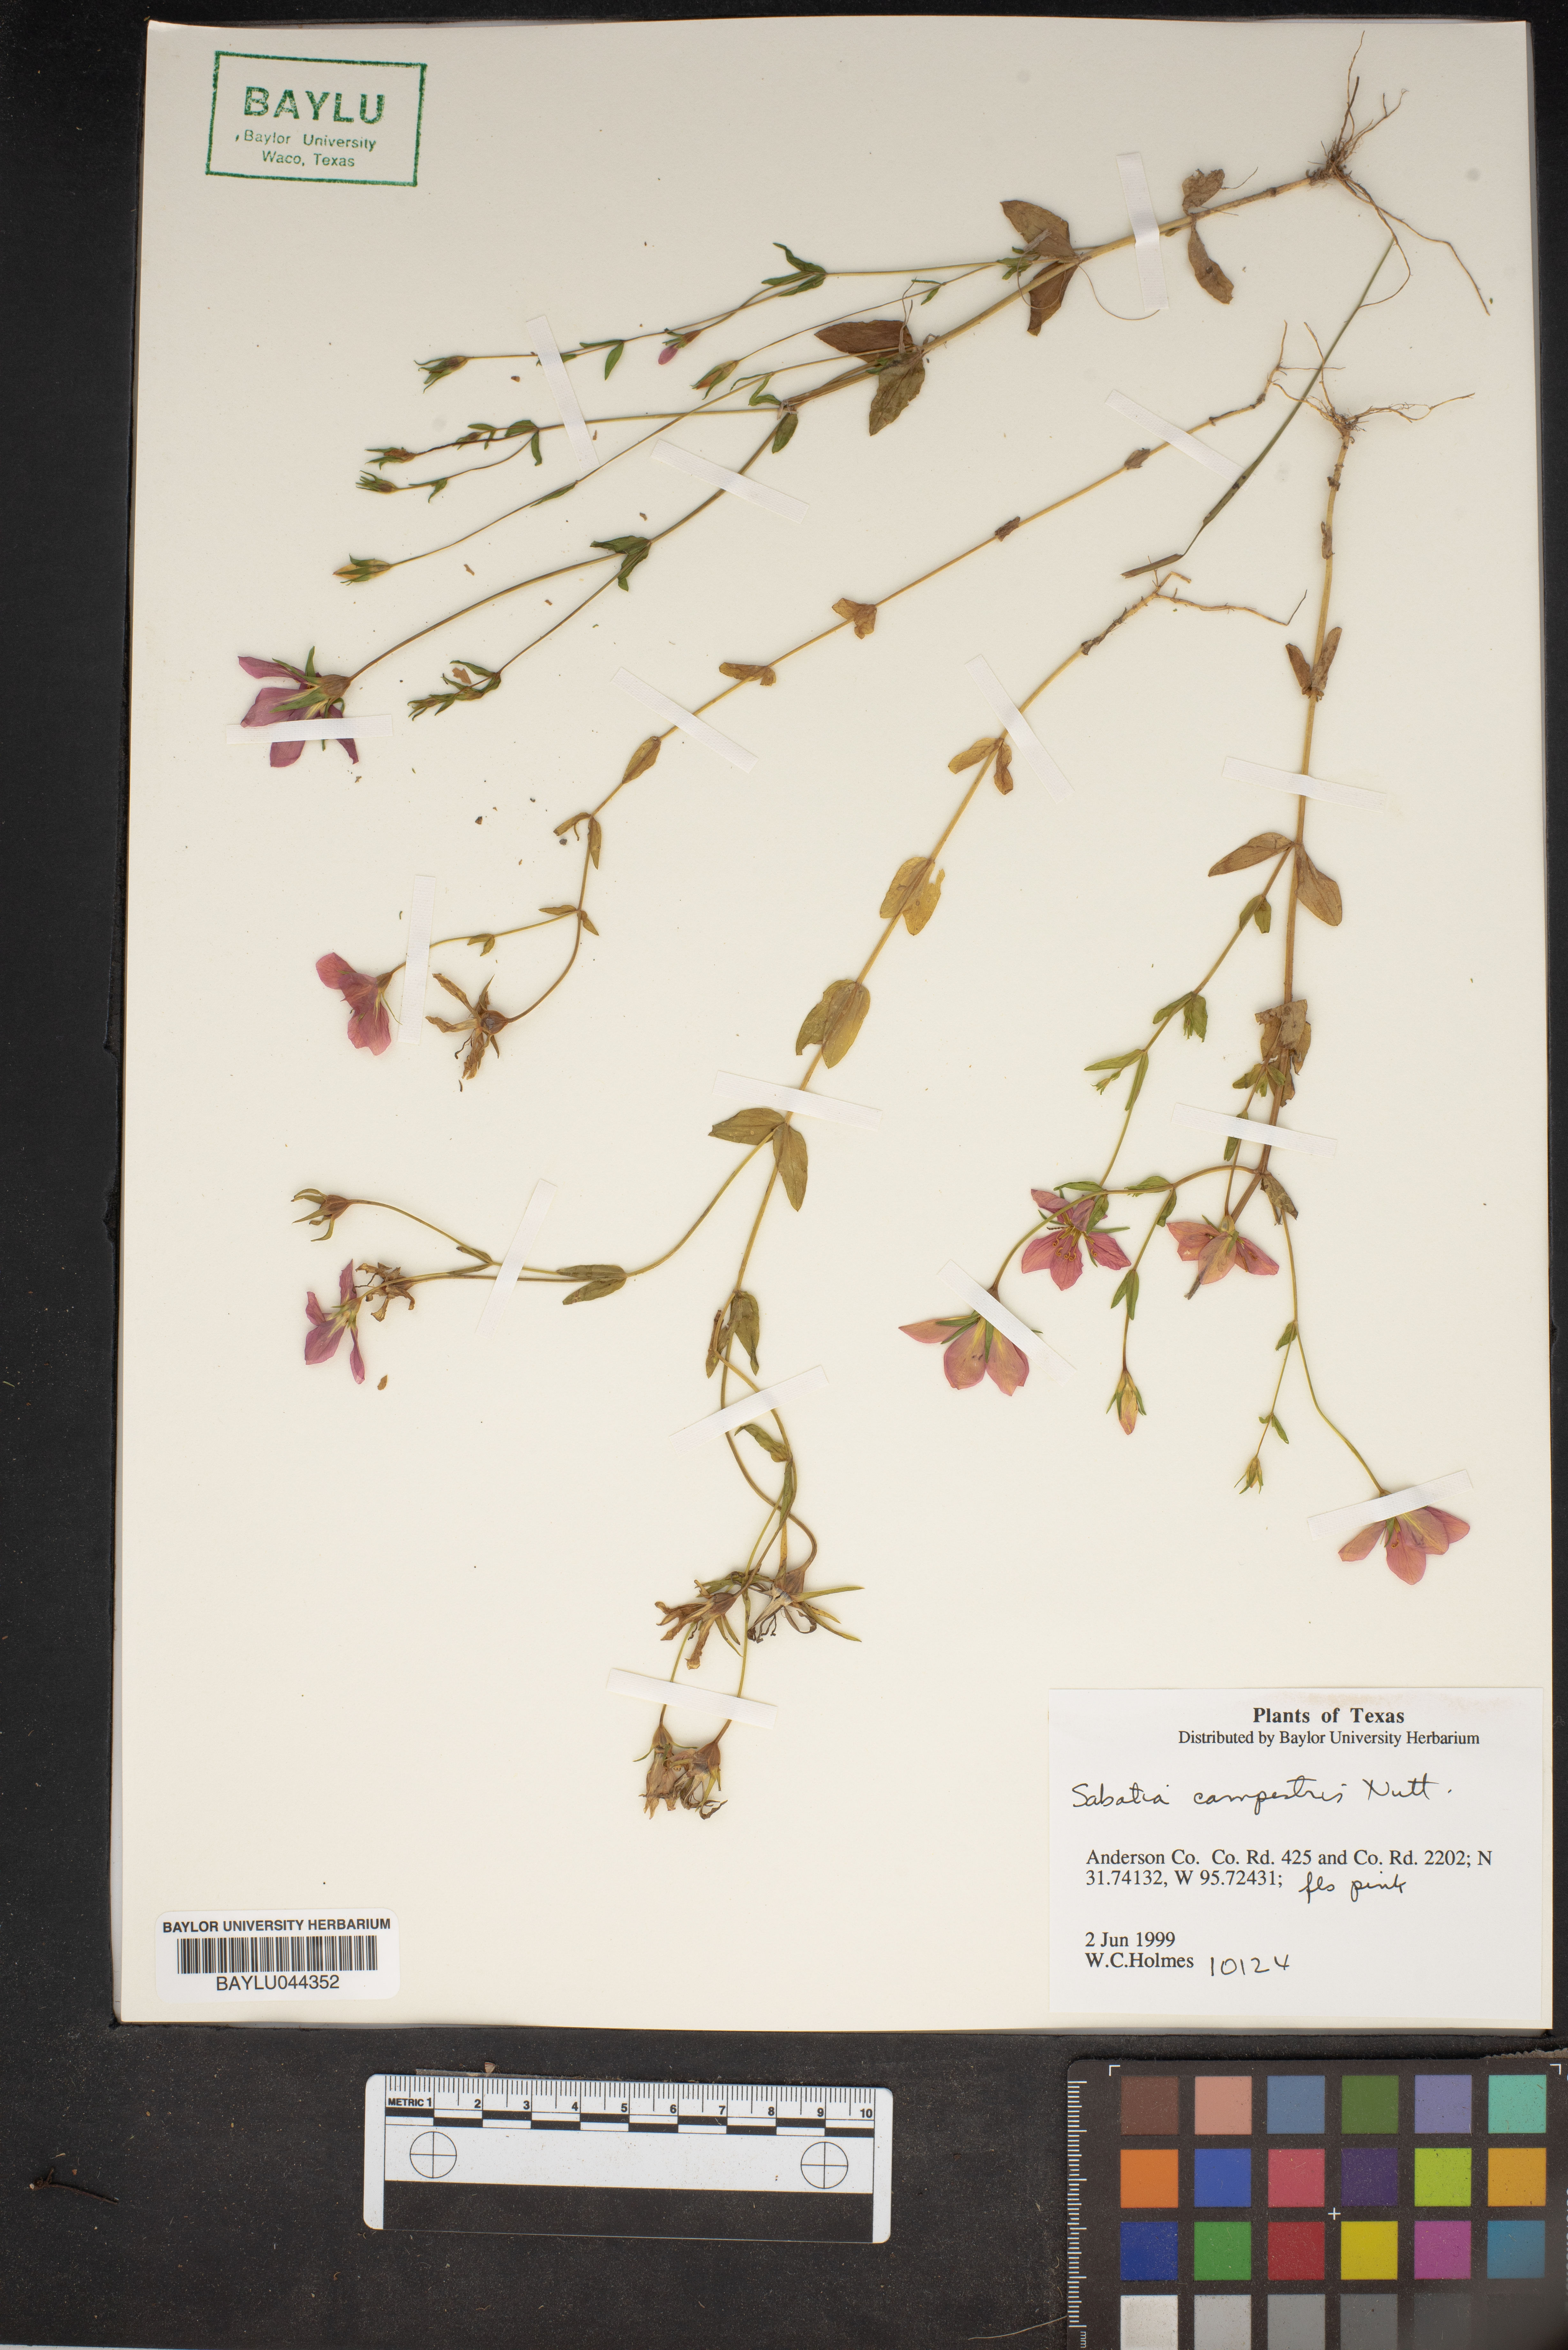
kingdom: Plantae
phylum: Tracheophyta
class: Magnoliopsida
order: Gentianales
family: Gentianaceae
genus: Sabatia
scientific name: Sabatia campestris
